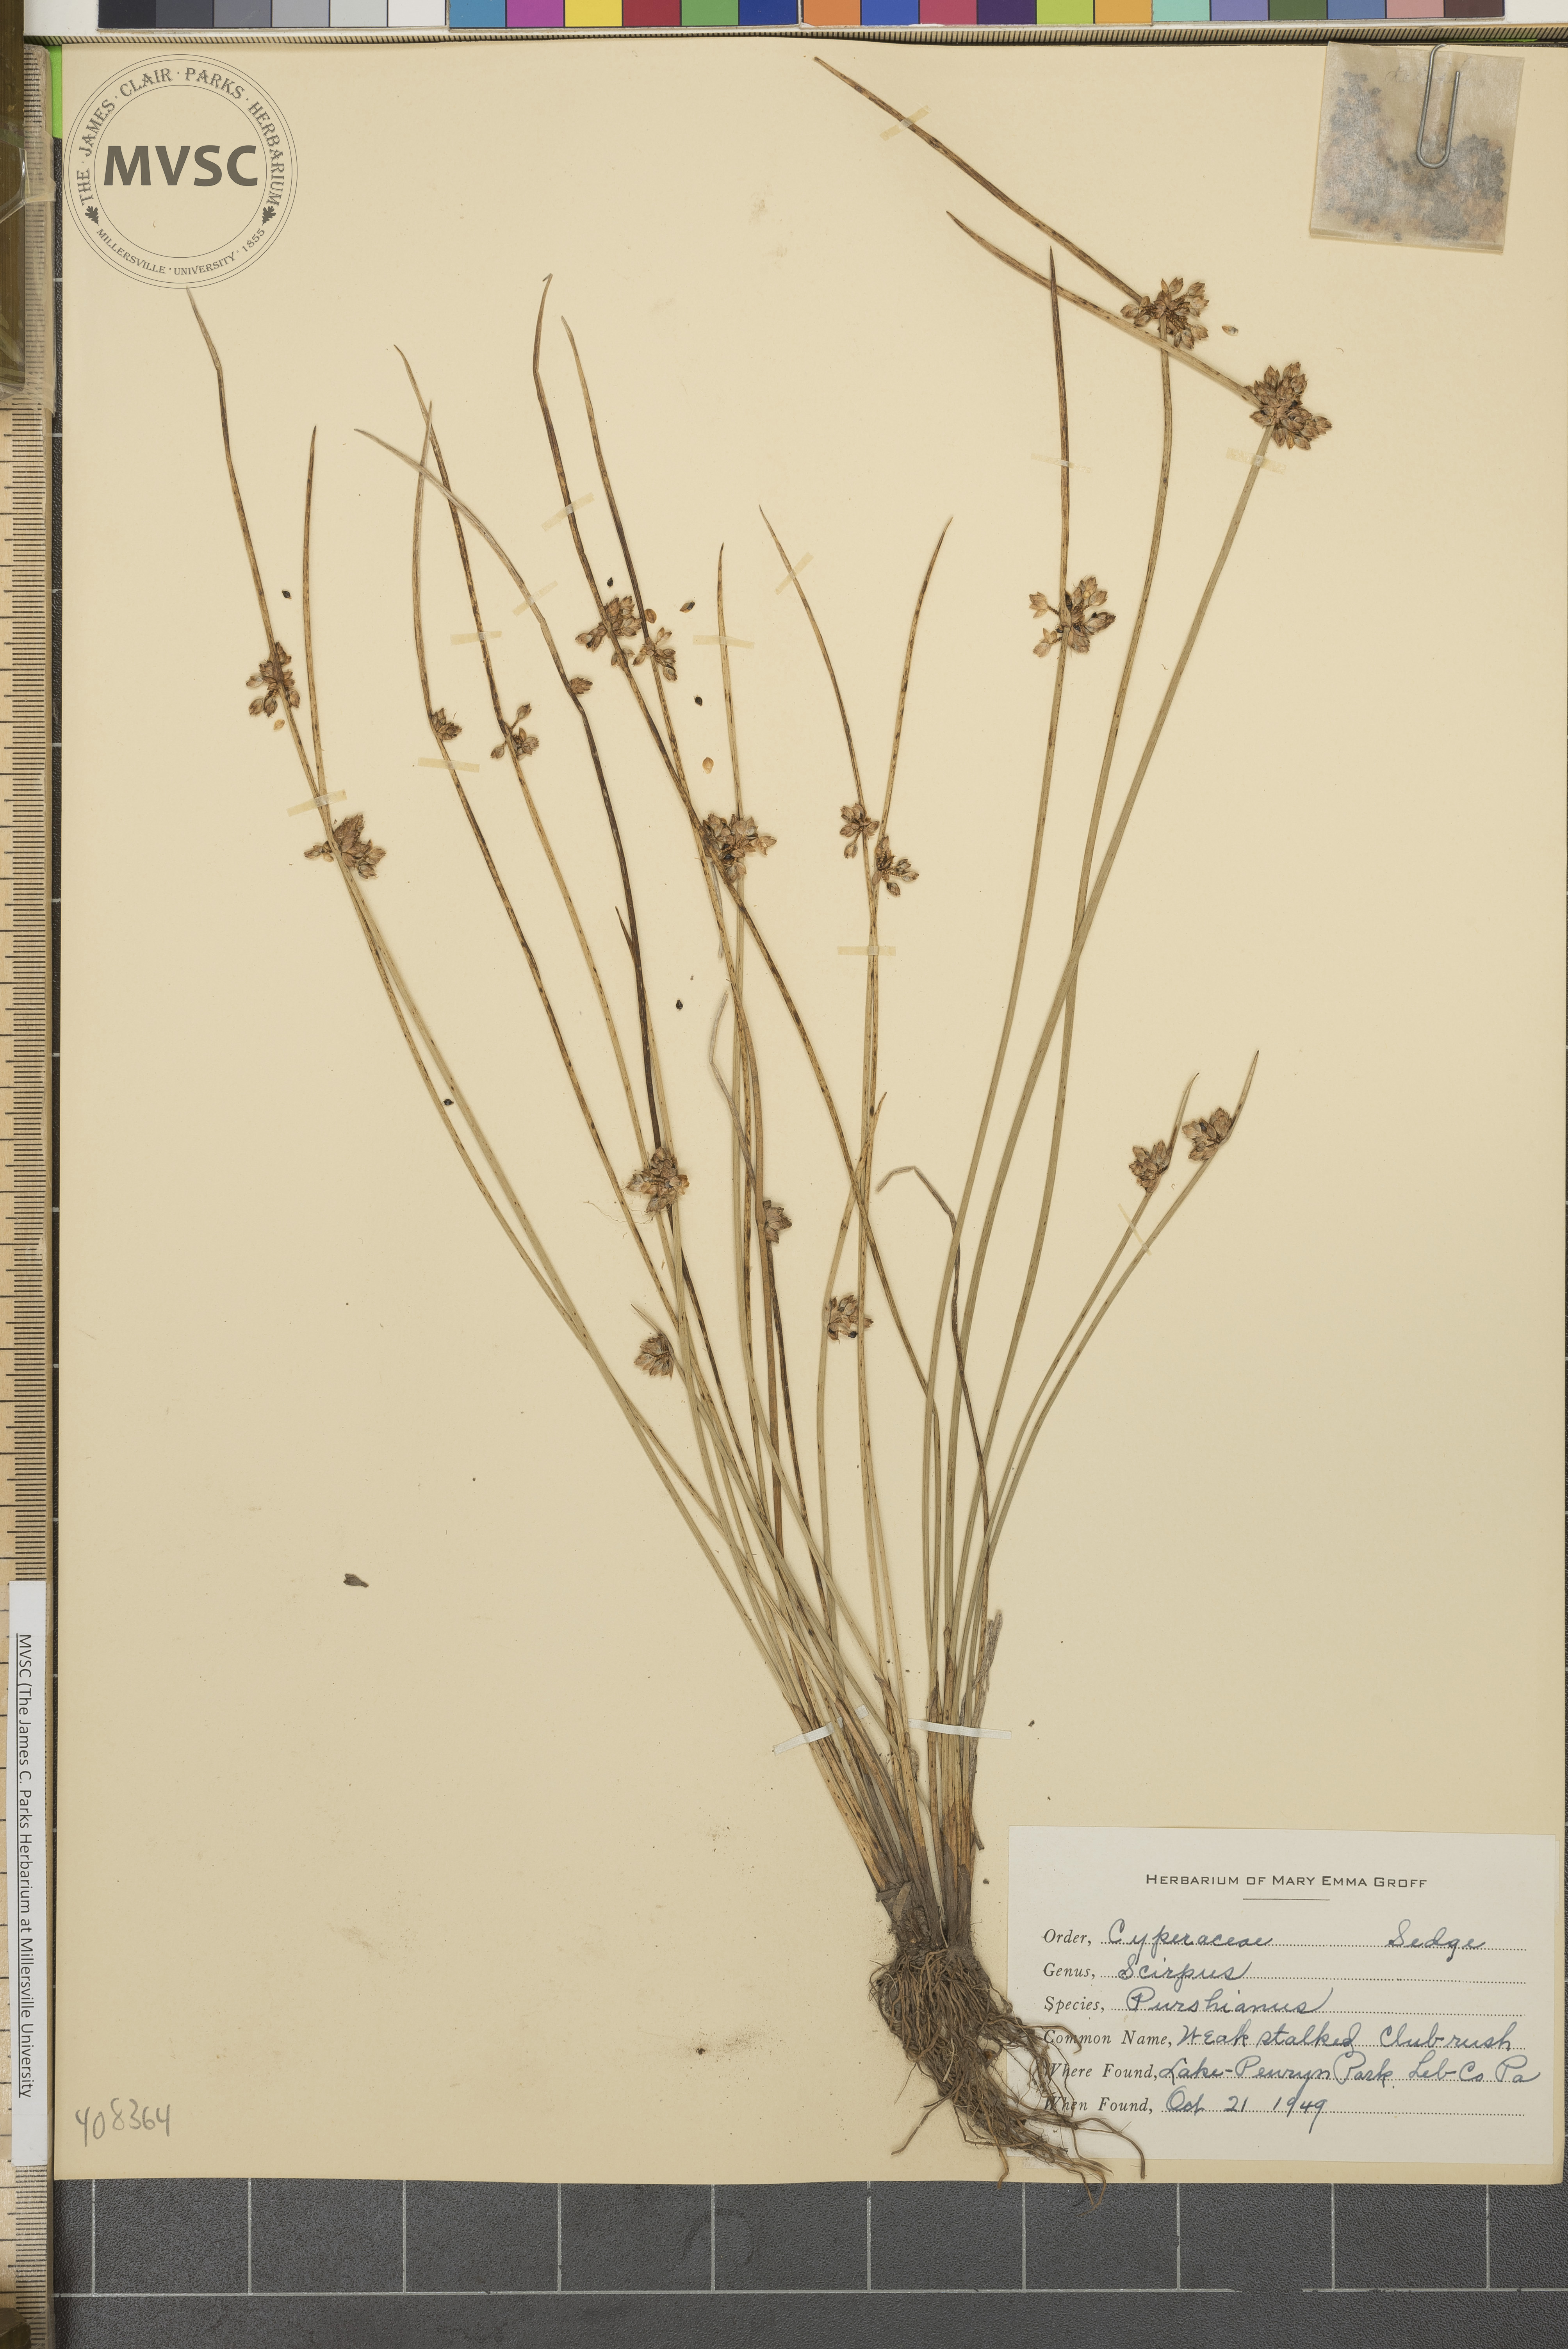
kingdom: Plantae
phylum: Tracheophyta
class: Liliopsida
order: Poales
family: Cyperaceae
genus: Schoenoplectiella
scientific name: Schoenoplectiella purshiana
